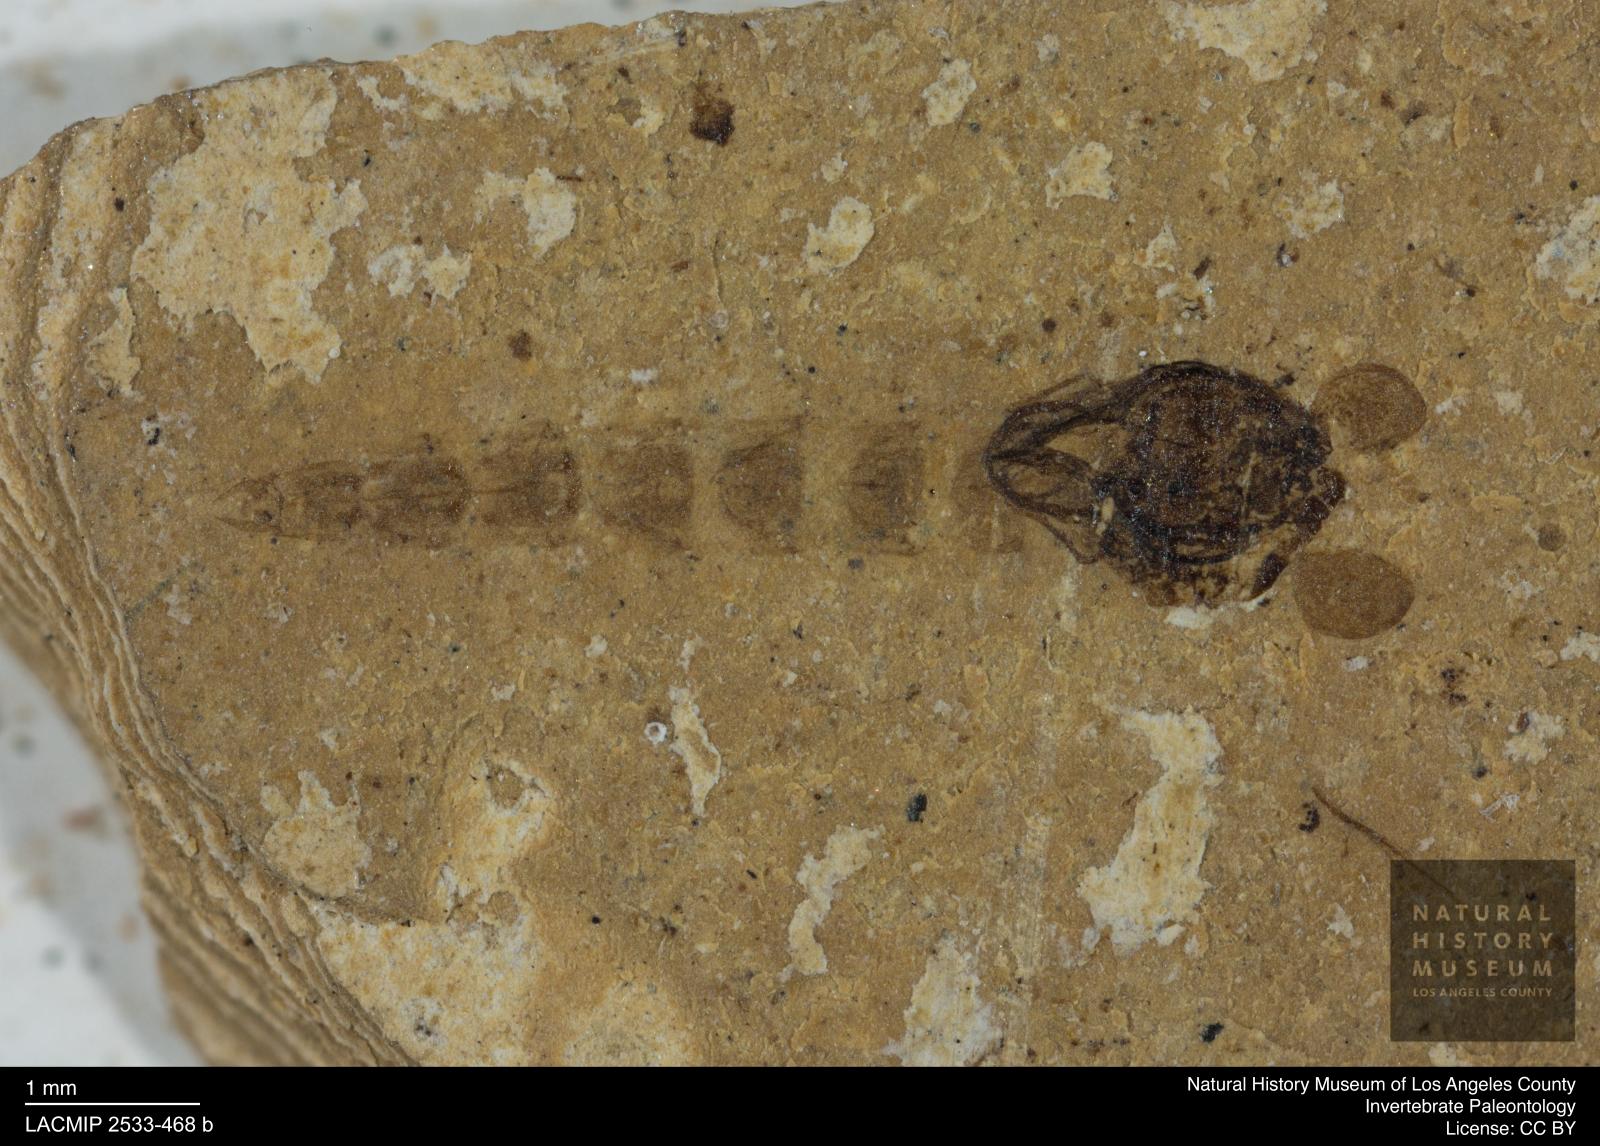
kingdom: Animalia
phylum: Arthropoda
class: Insecta
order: Diptera
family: Chironomidae
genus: Tanypus
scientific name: Tanypus
